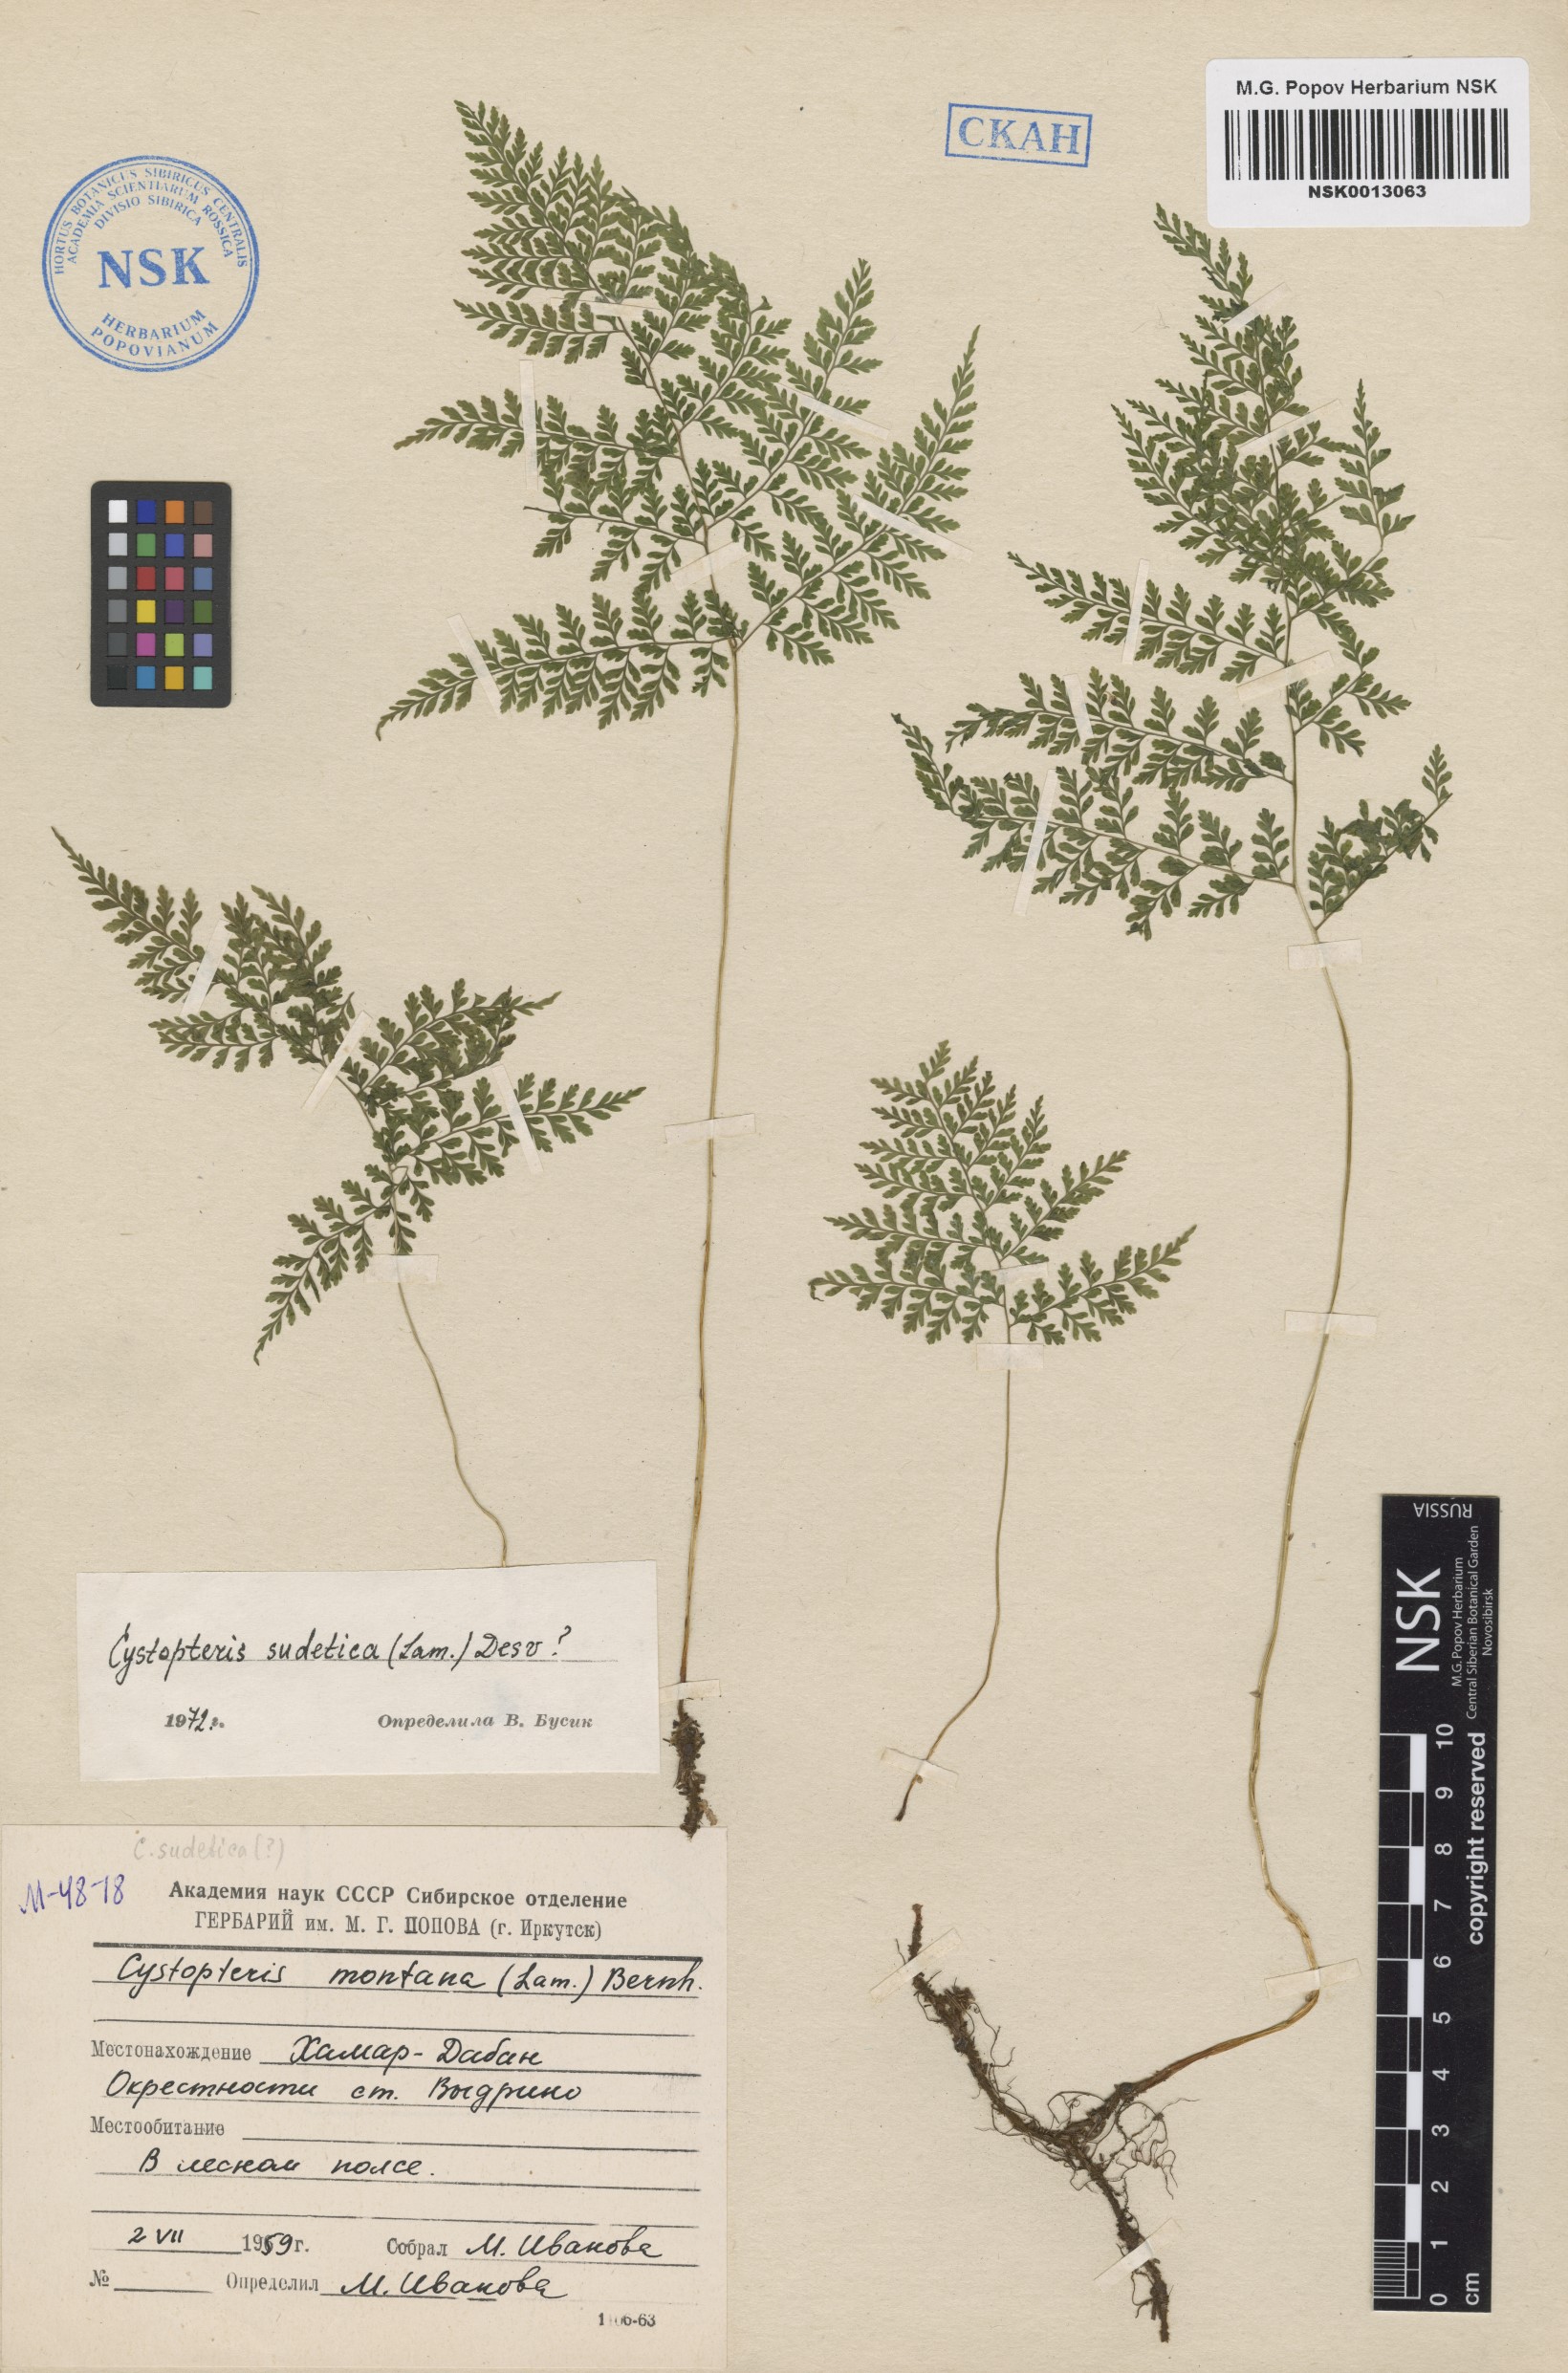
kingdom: Plantae
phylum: Tracheophyta
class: Polypodiopsida
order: Polypodiales
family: Cystopteridaceae
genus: Cystopteris
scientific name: Cystopteris sudetica
